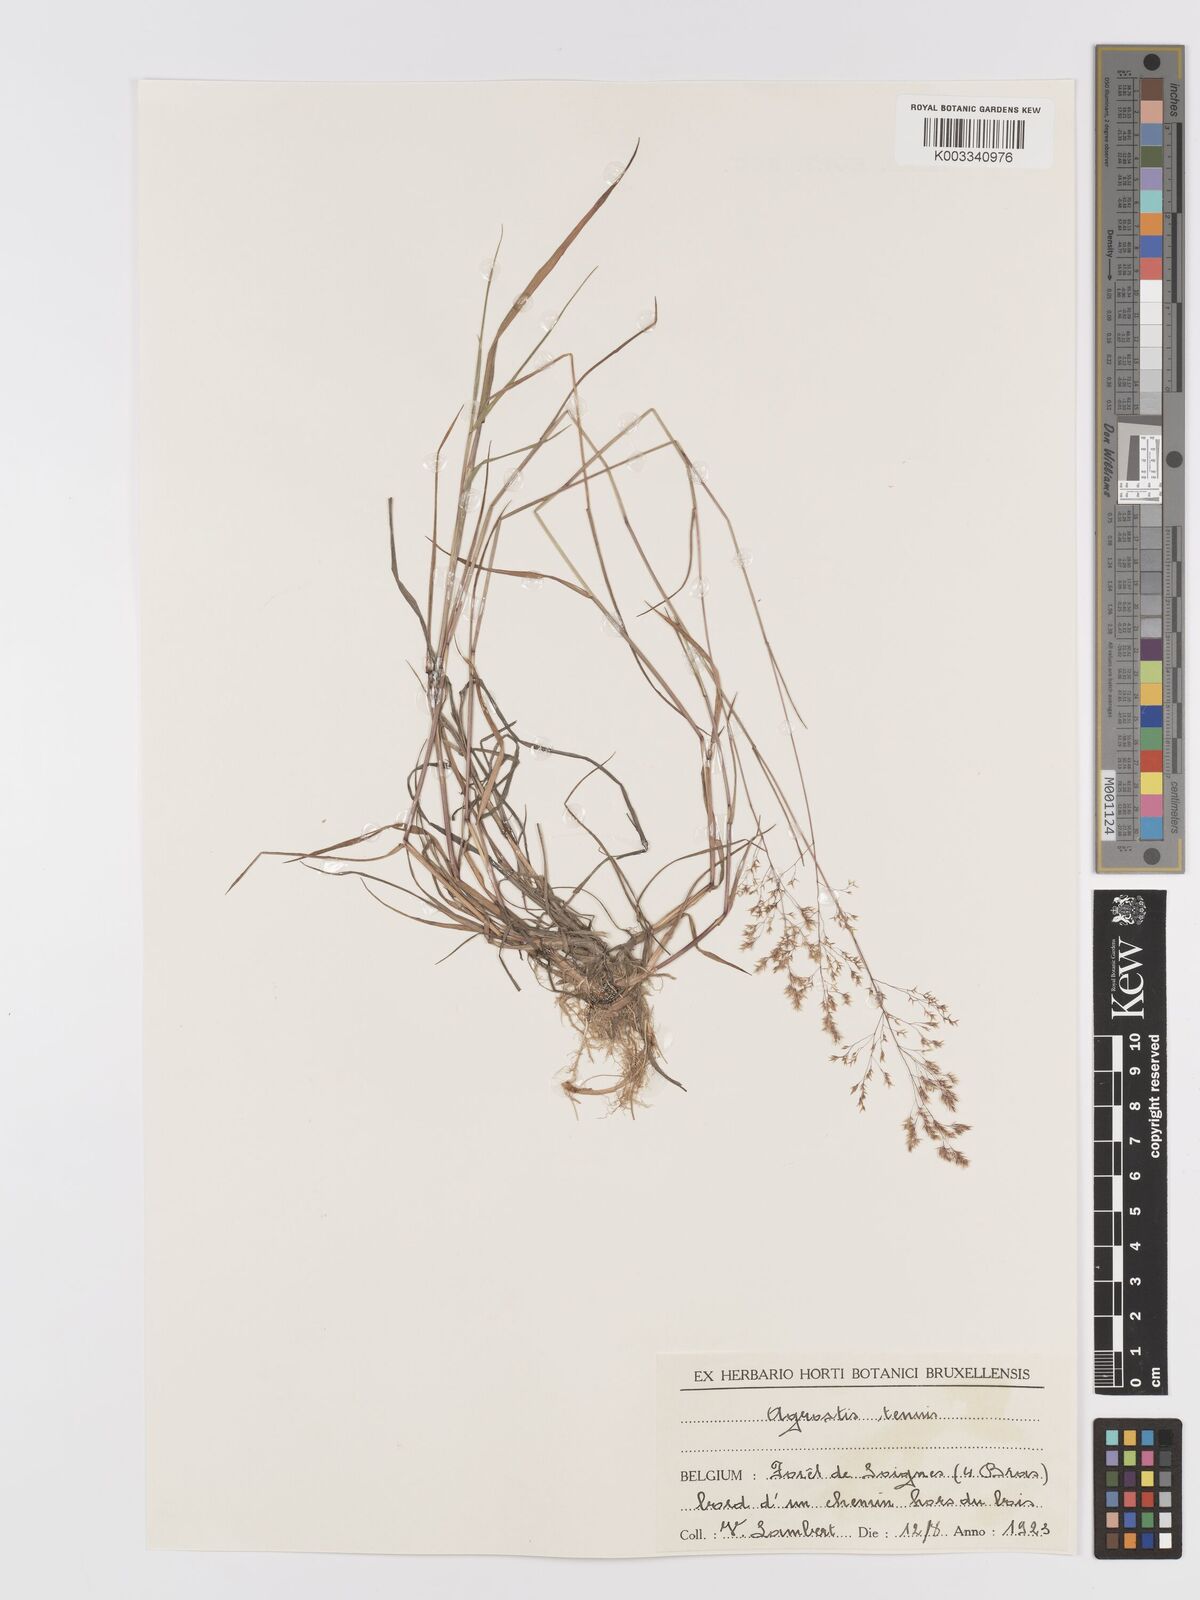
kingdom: Plantae
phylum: Tracheophyta
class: Liliopsida
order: Poales
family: Poaceae
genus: Agrostis
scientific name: Agrostis capillaris
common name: Colonial bentgrass
